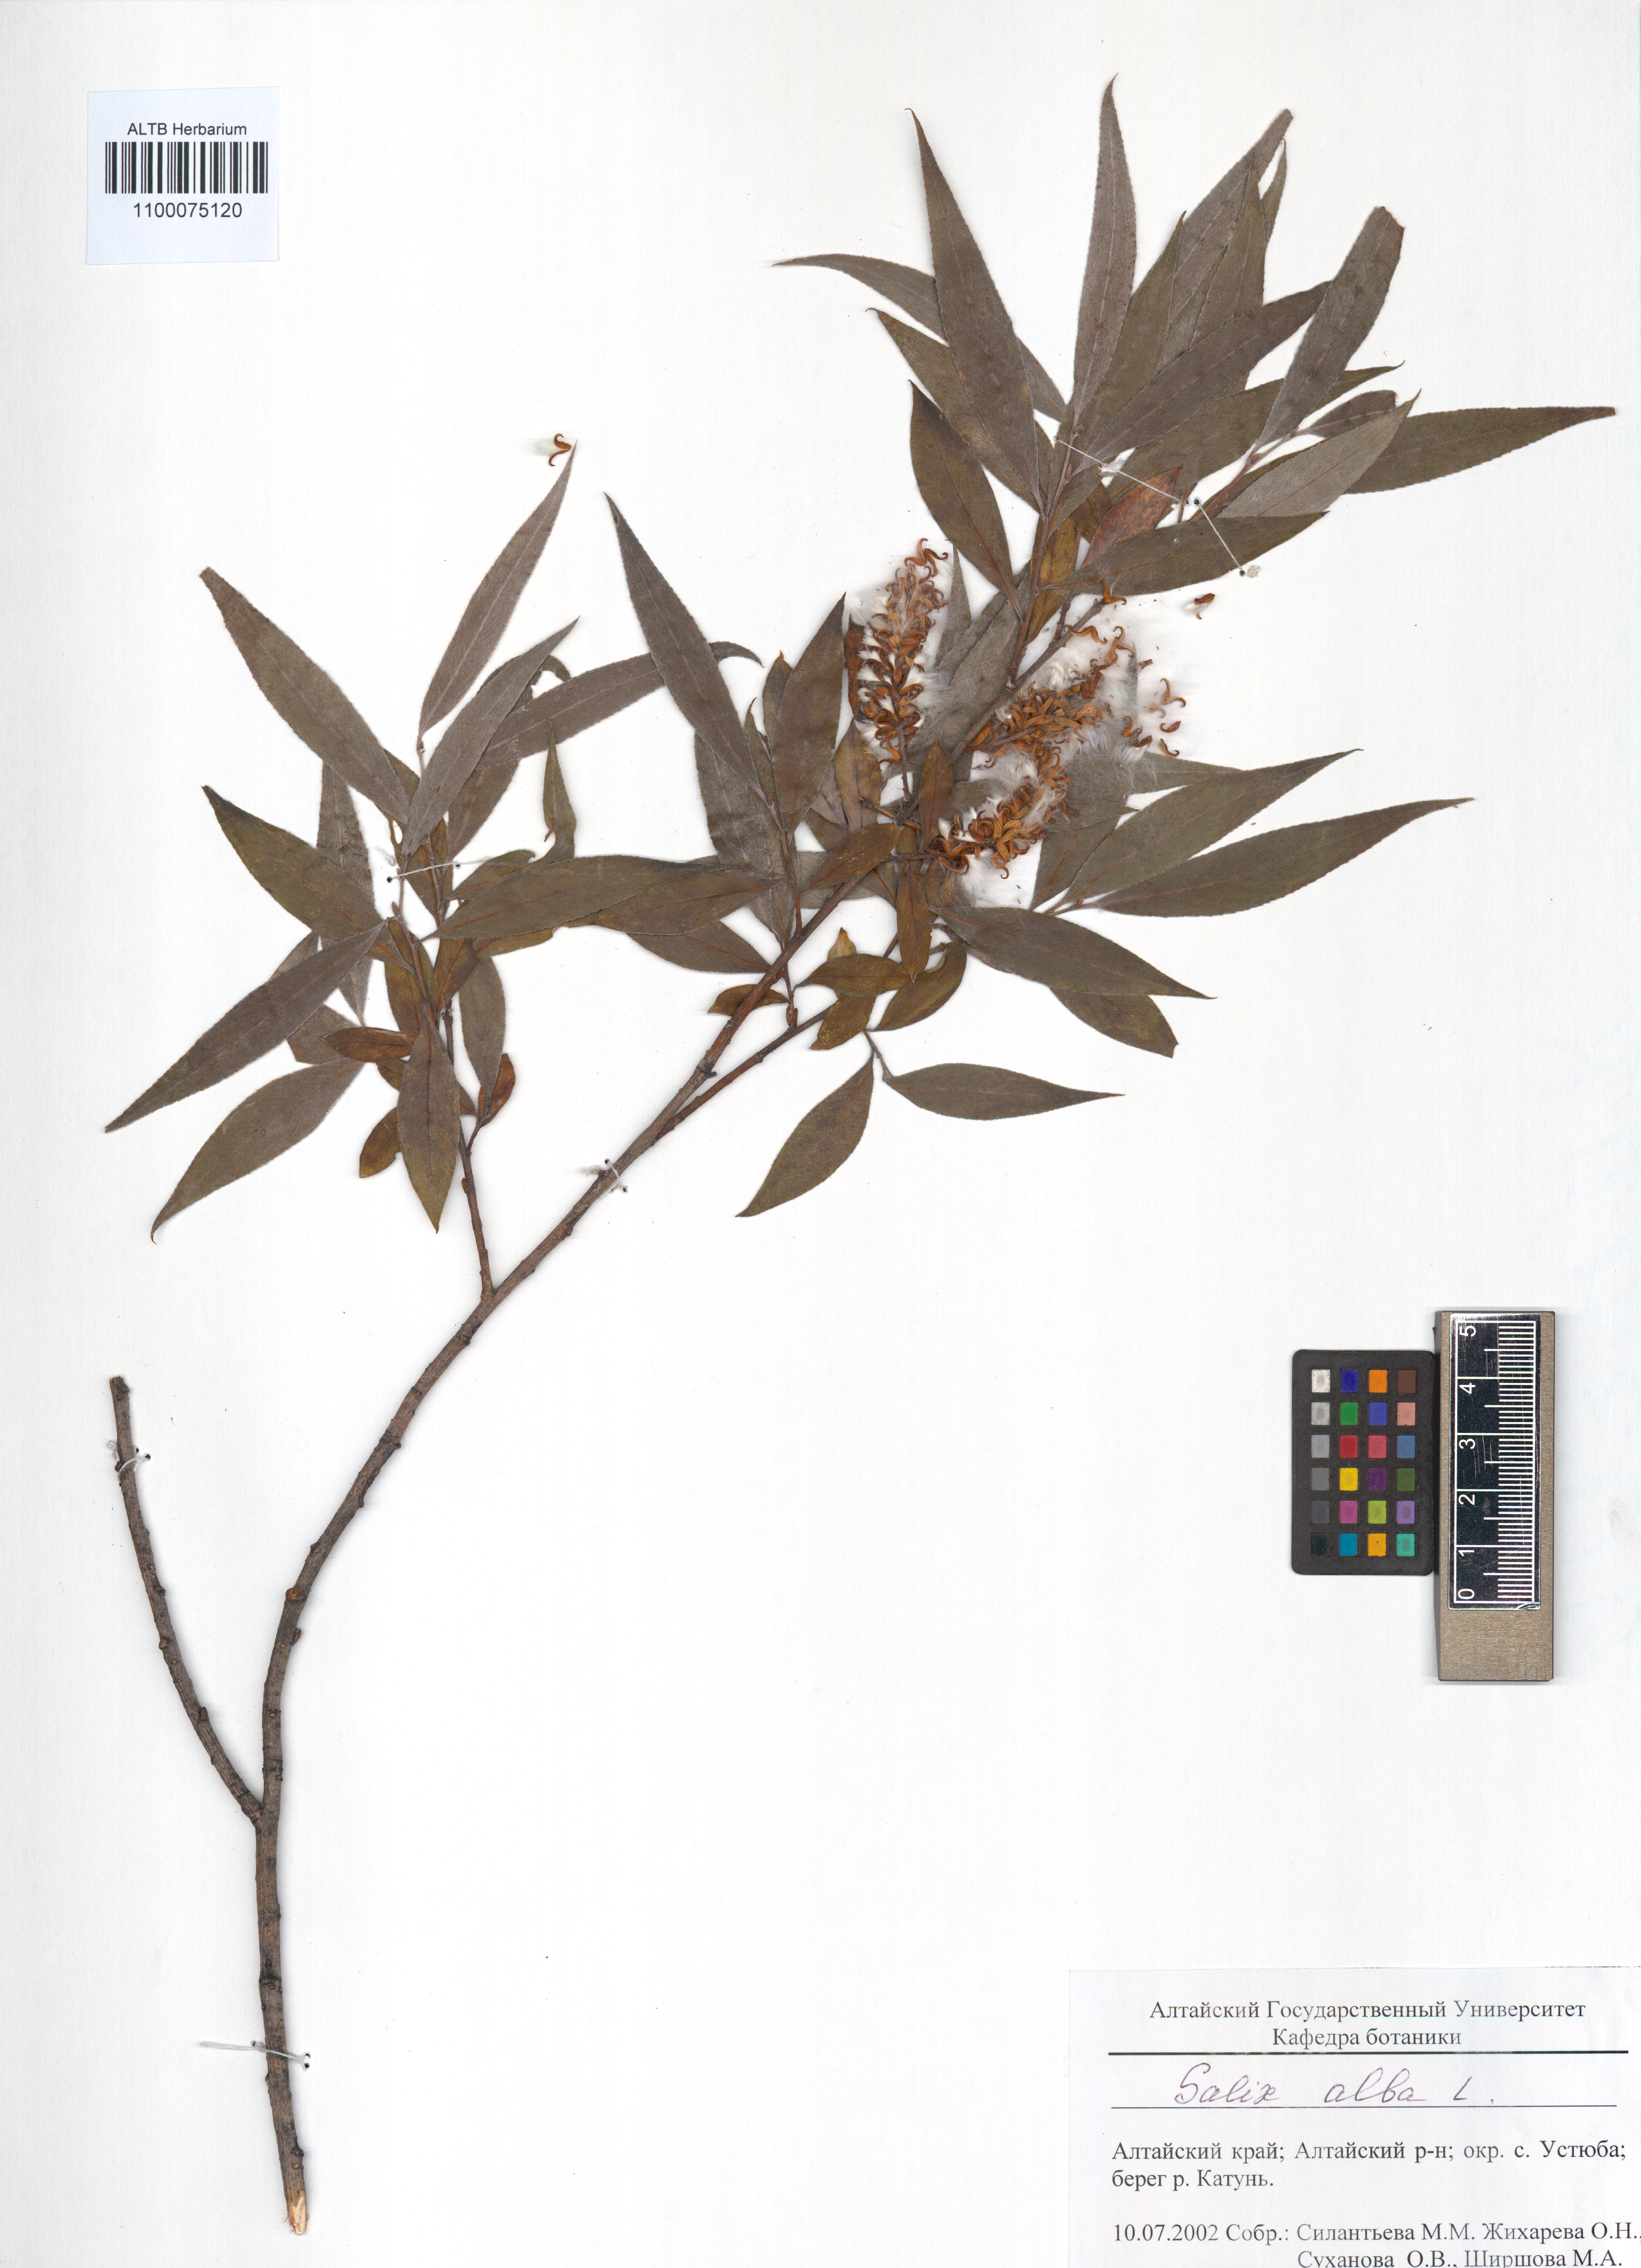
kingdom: Plantae
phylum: Tracheophyta
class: Magnoliopsida
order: Malpighiales
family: Salicaceae
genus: Salix
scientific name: Salix alba
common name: White willow
